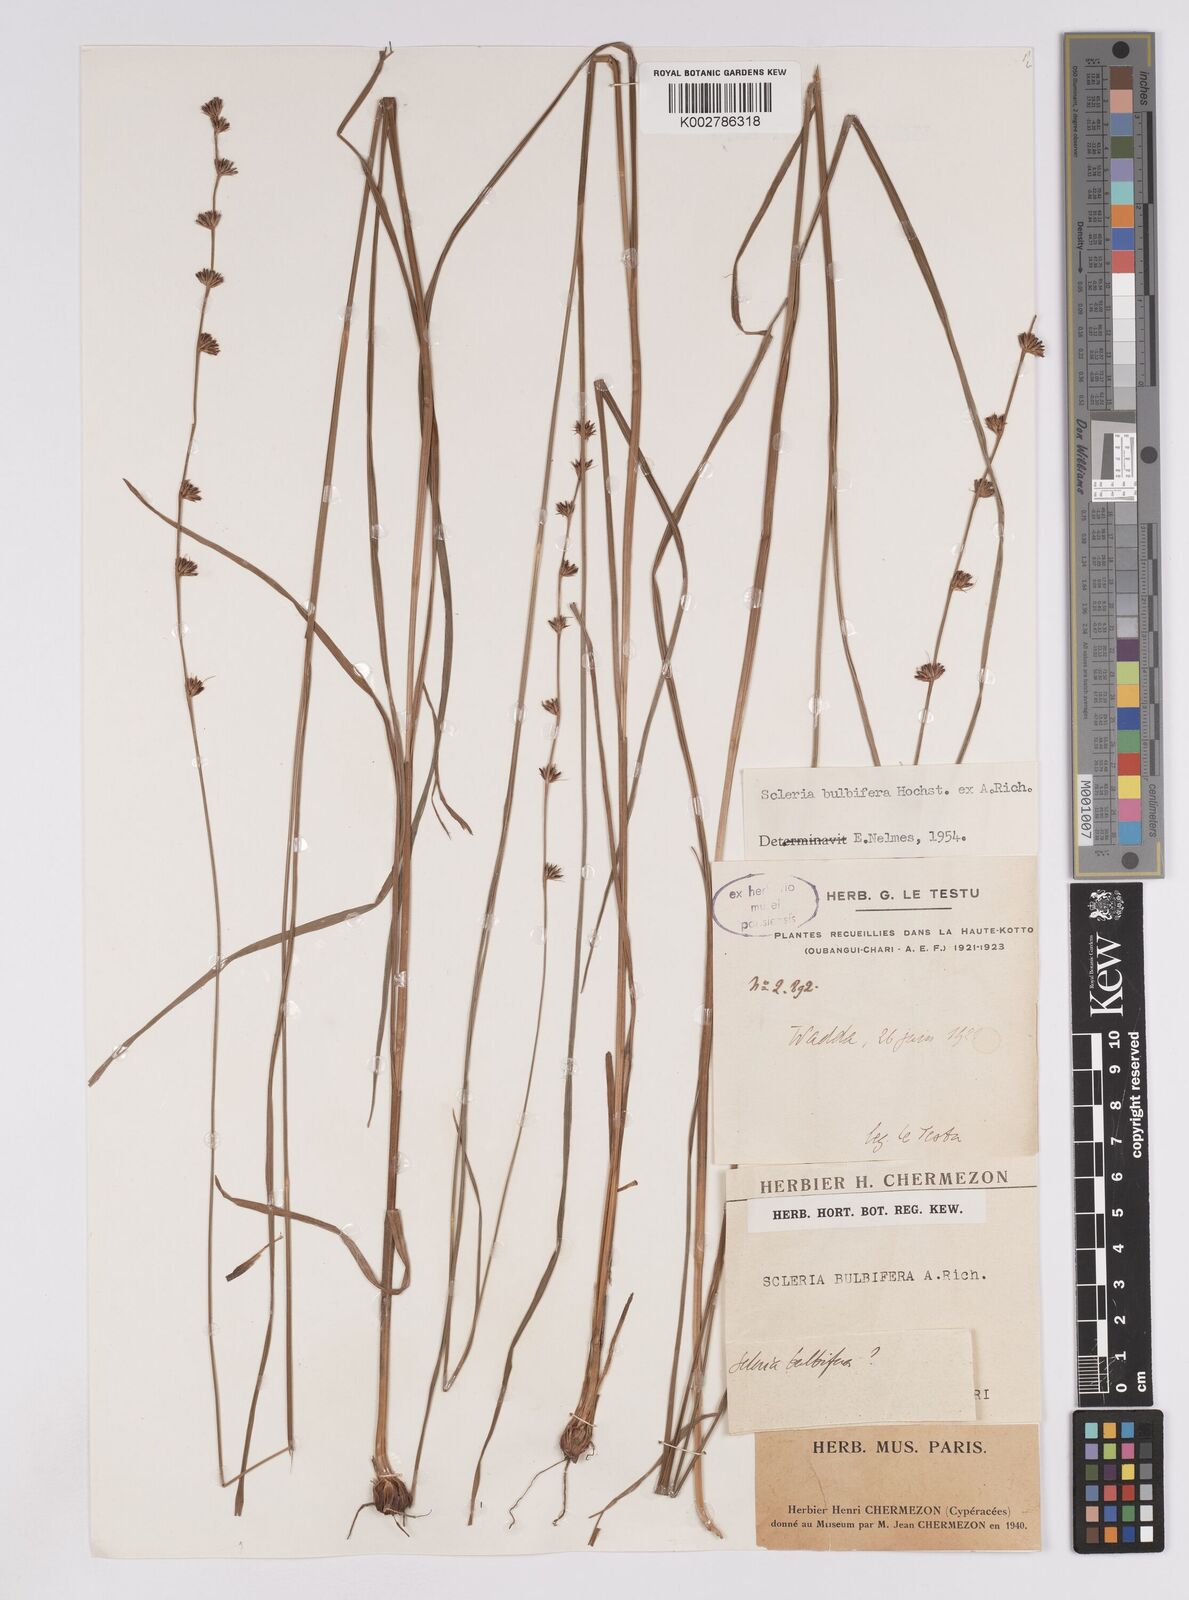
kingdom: Plantae
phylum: Tracheophyta
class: Liliopsida
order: Poales
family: Cyperaceae
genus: Scleria
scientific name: Scleria bulbifera
